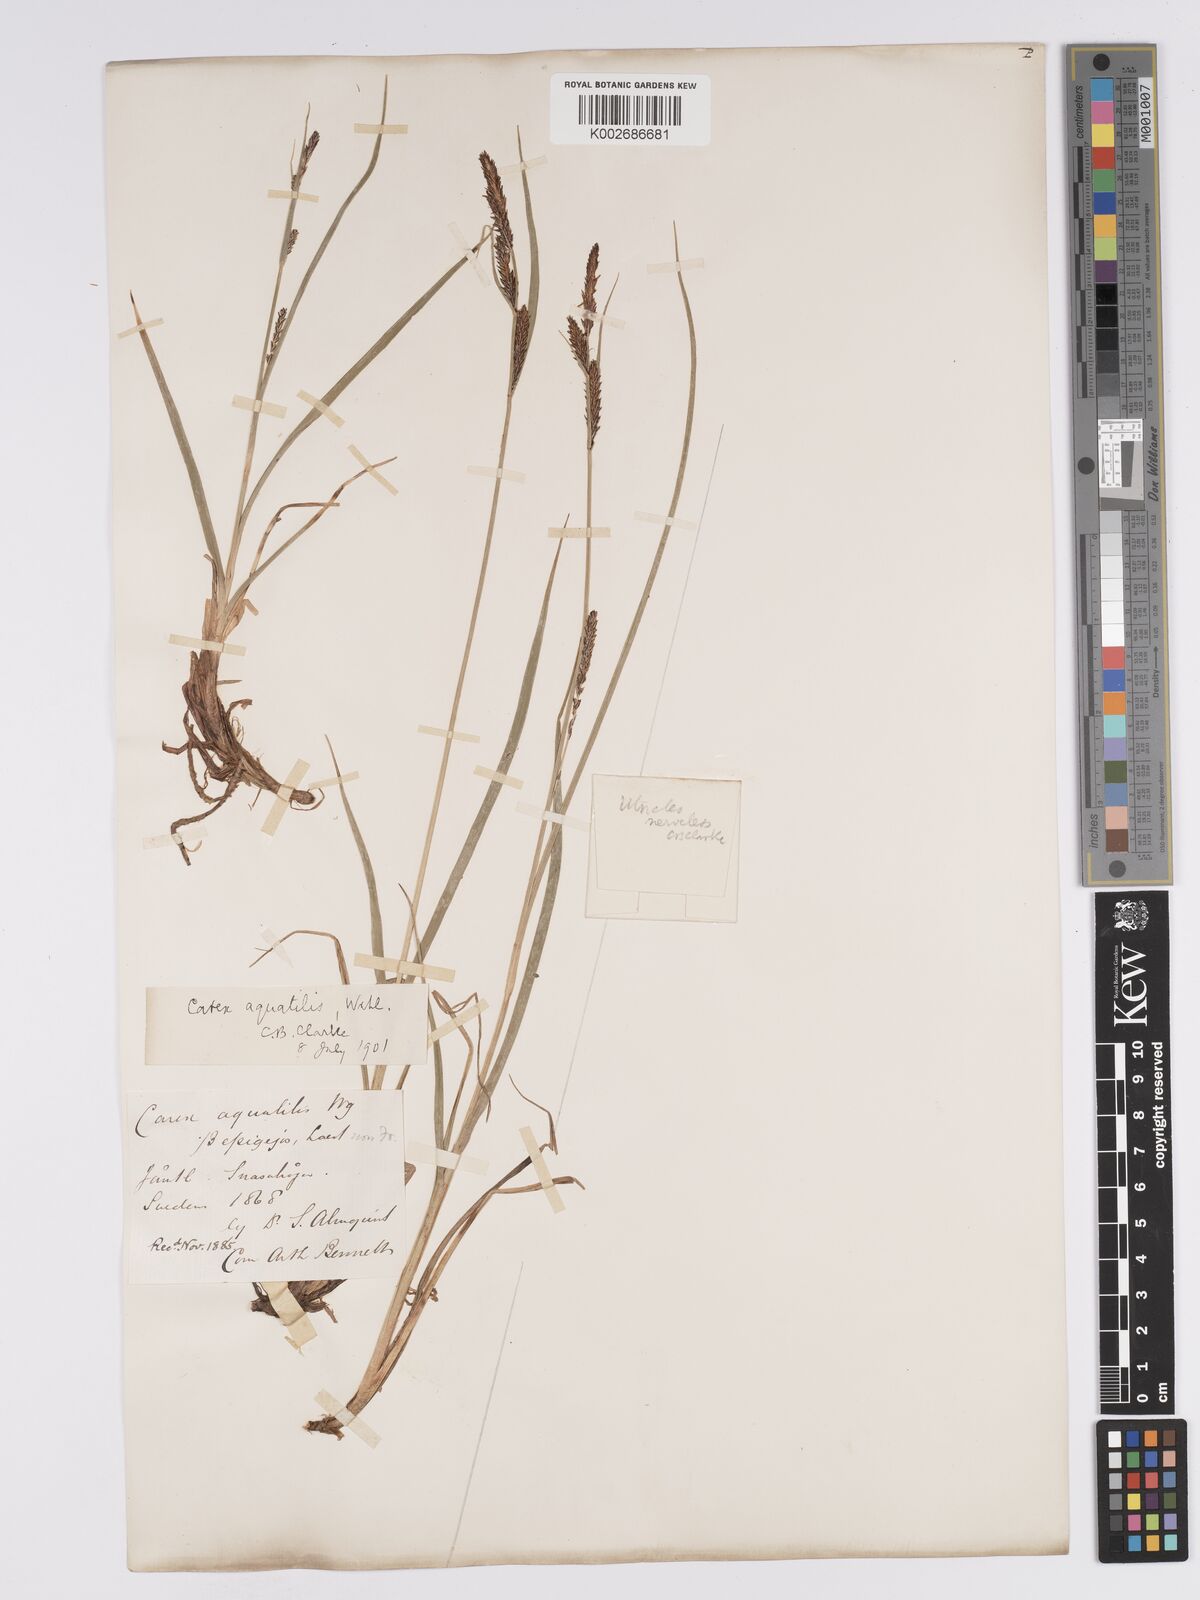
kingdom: Plantae
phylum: Tracheophyta
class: Liliopsida
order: Poales
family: Cyperaceae
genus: Carex
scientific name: Carex aquatilis
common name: Water sedge
